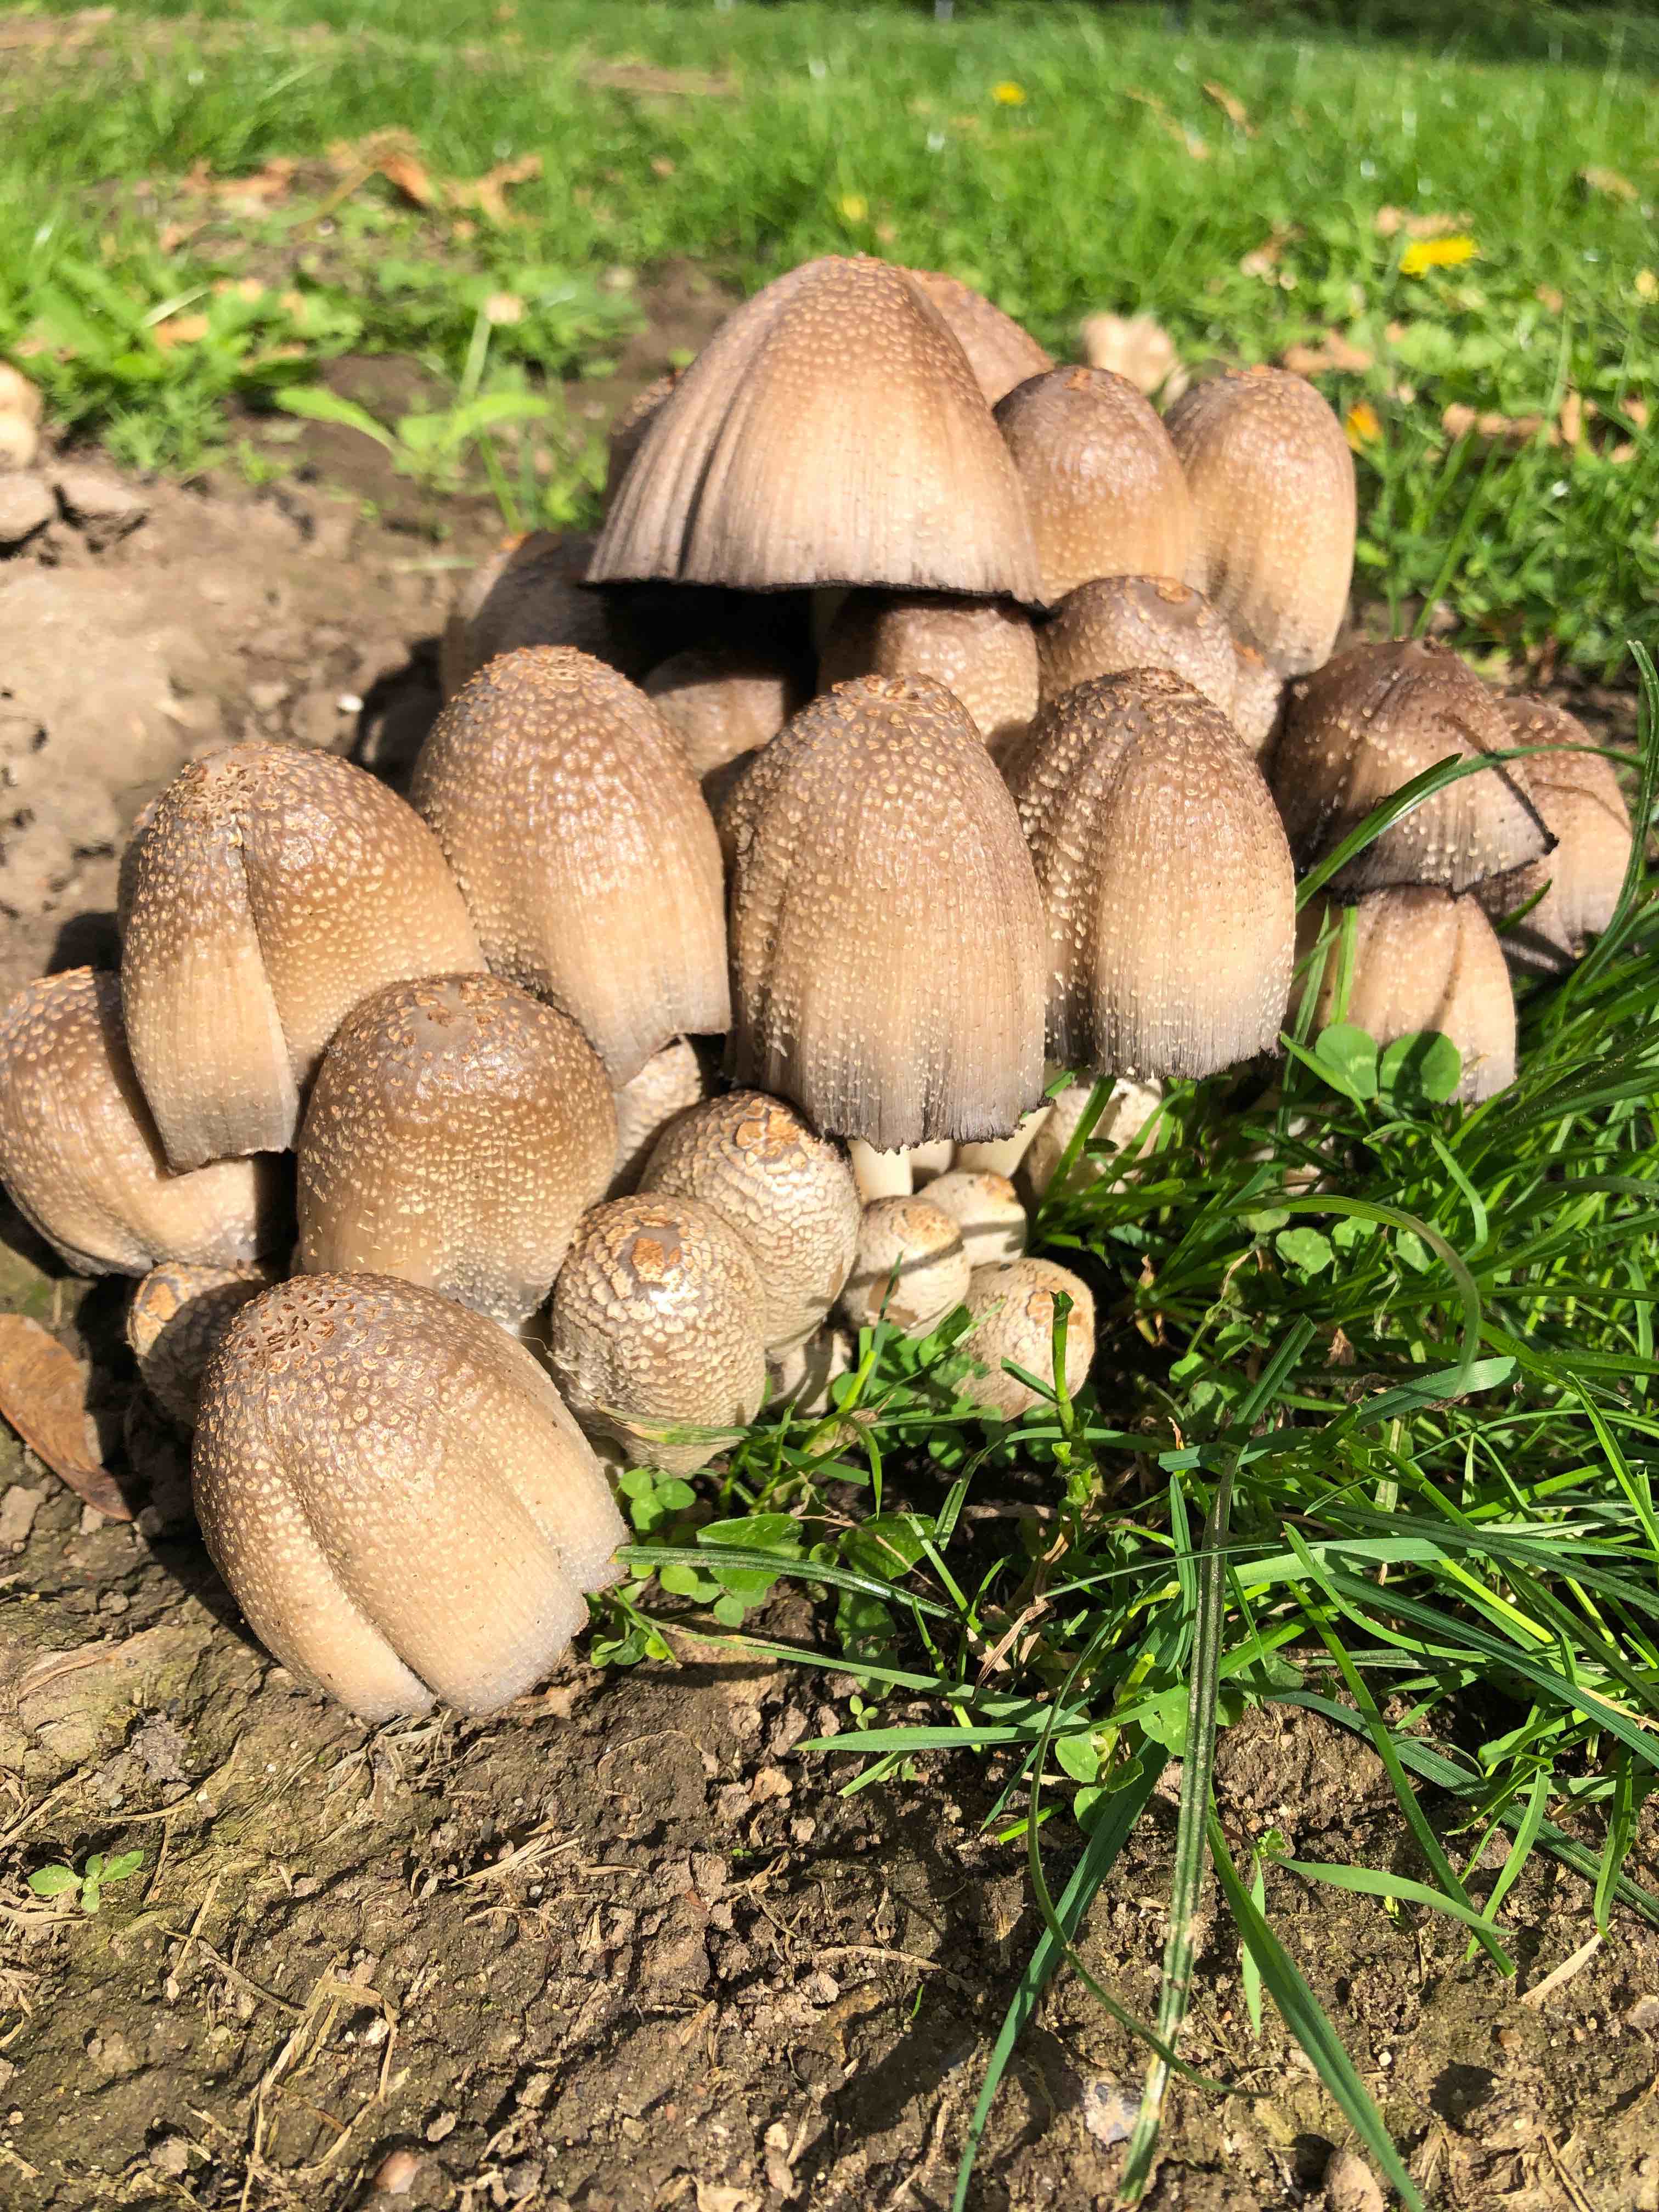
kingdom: Fungi
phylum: Basidiomycota
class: Agaricomycetes
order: Agaricales
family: Psathyrellaceae
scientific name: Psathyrellaceae
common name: mørkhatfamilien
